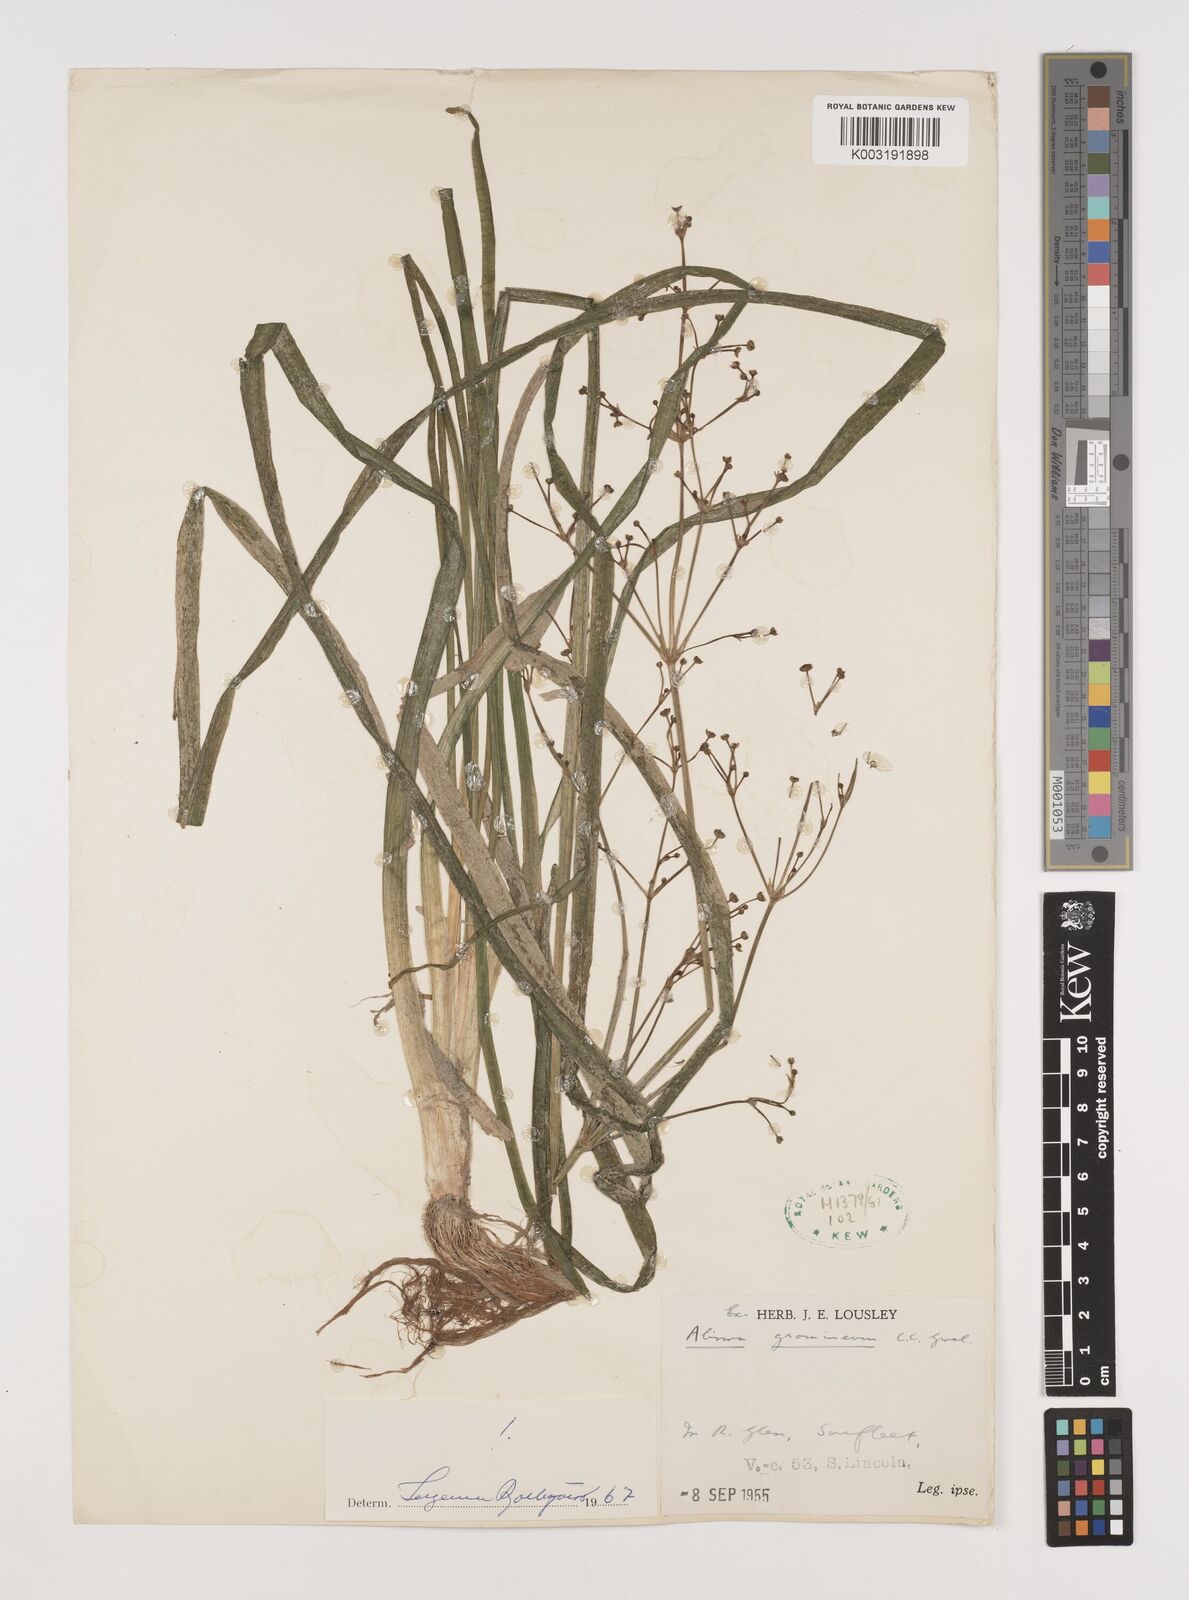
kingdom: Plantae
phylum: Tracheophyta
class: Liliopsida
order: Alismatales
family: Alismataceae
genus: Alisma
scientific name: Alisma gramineum
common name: Ribbon-leaved water-plantain
